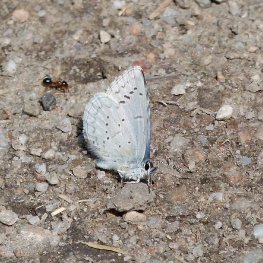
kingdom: Animalia
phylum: Arthropoda
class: Insecta
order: Lepidoptera
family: Lycaenidae
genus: Celastrina
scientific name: Celastrina ladon
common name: Echo Azure
